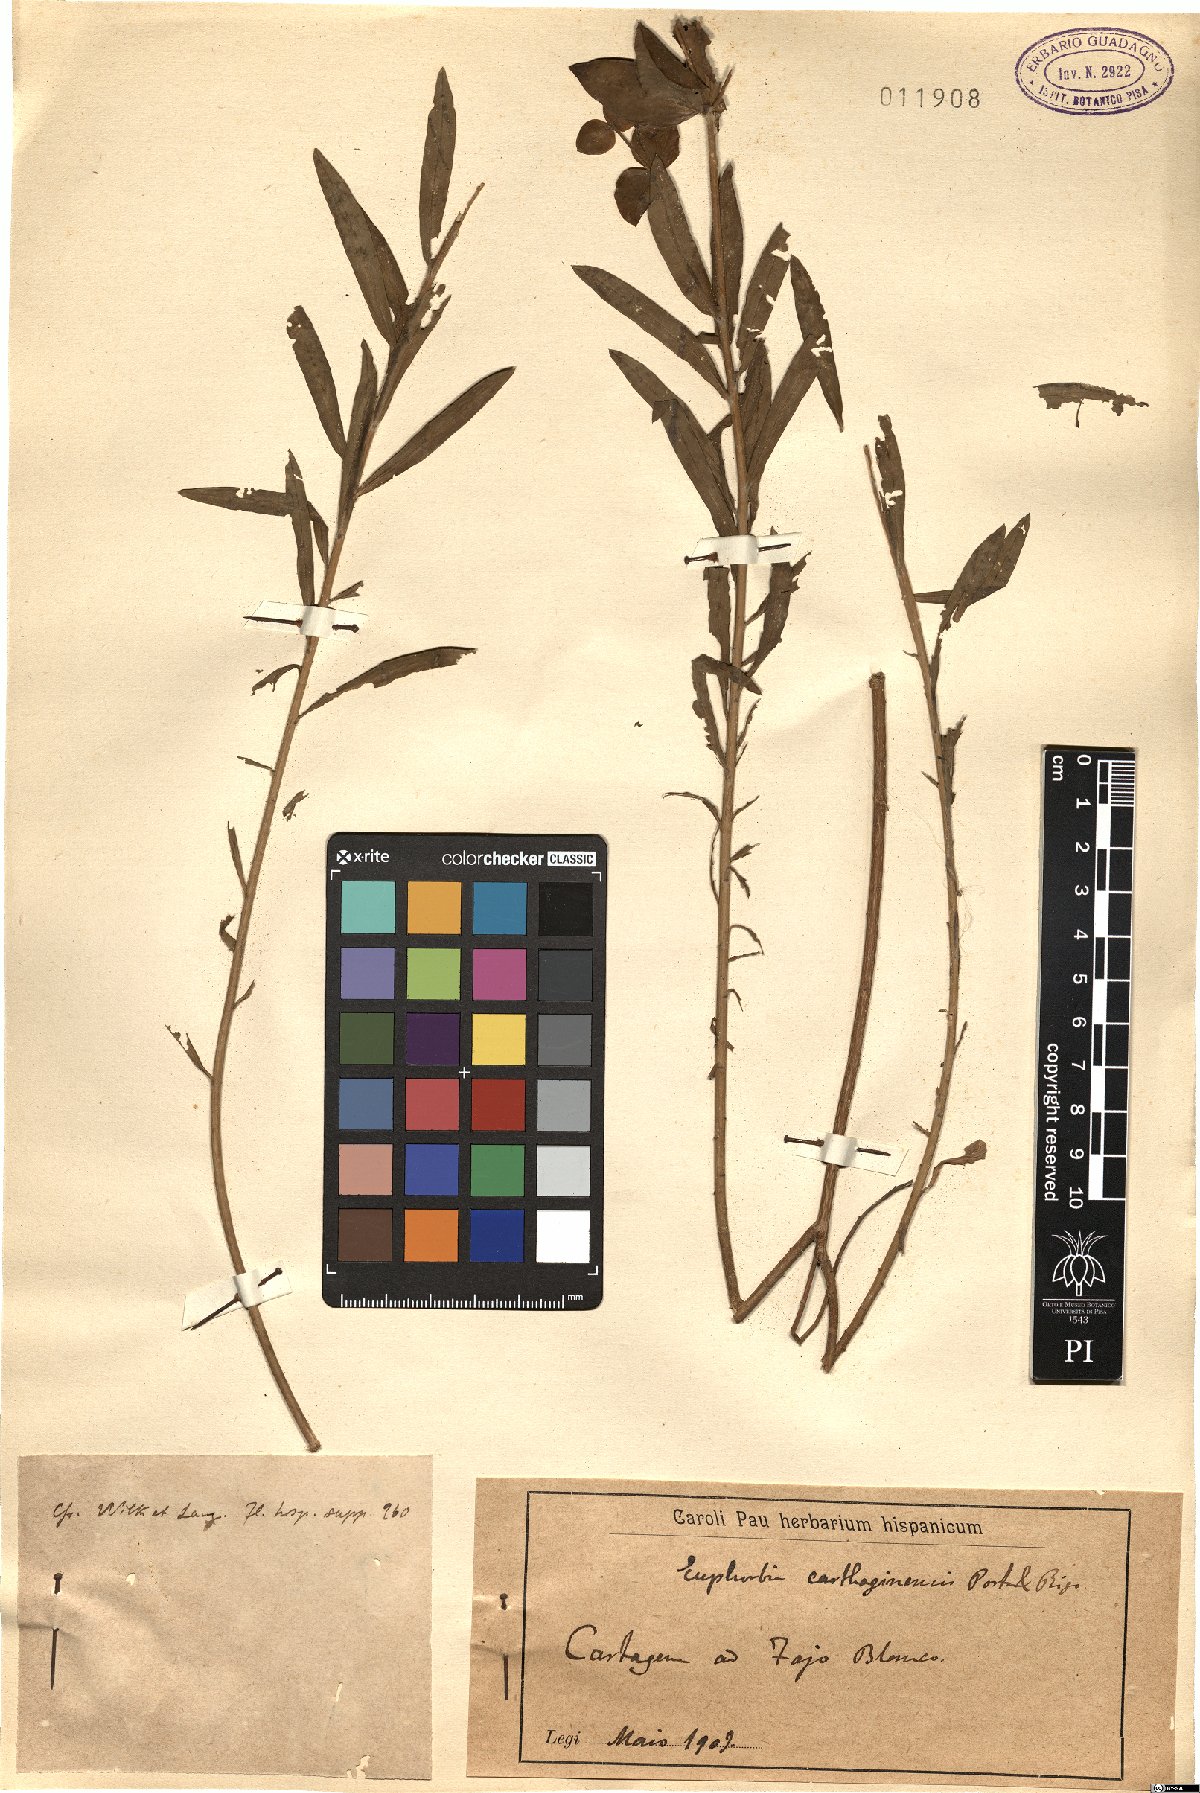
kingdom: Plantae
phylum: Tracheophyta
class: Magnoliopsida
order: Malpighiales
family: Euphorbiaceae
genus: Euphorbia
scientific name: Euphorbia squamigera
